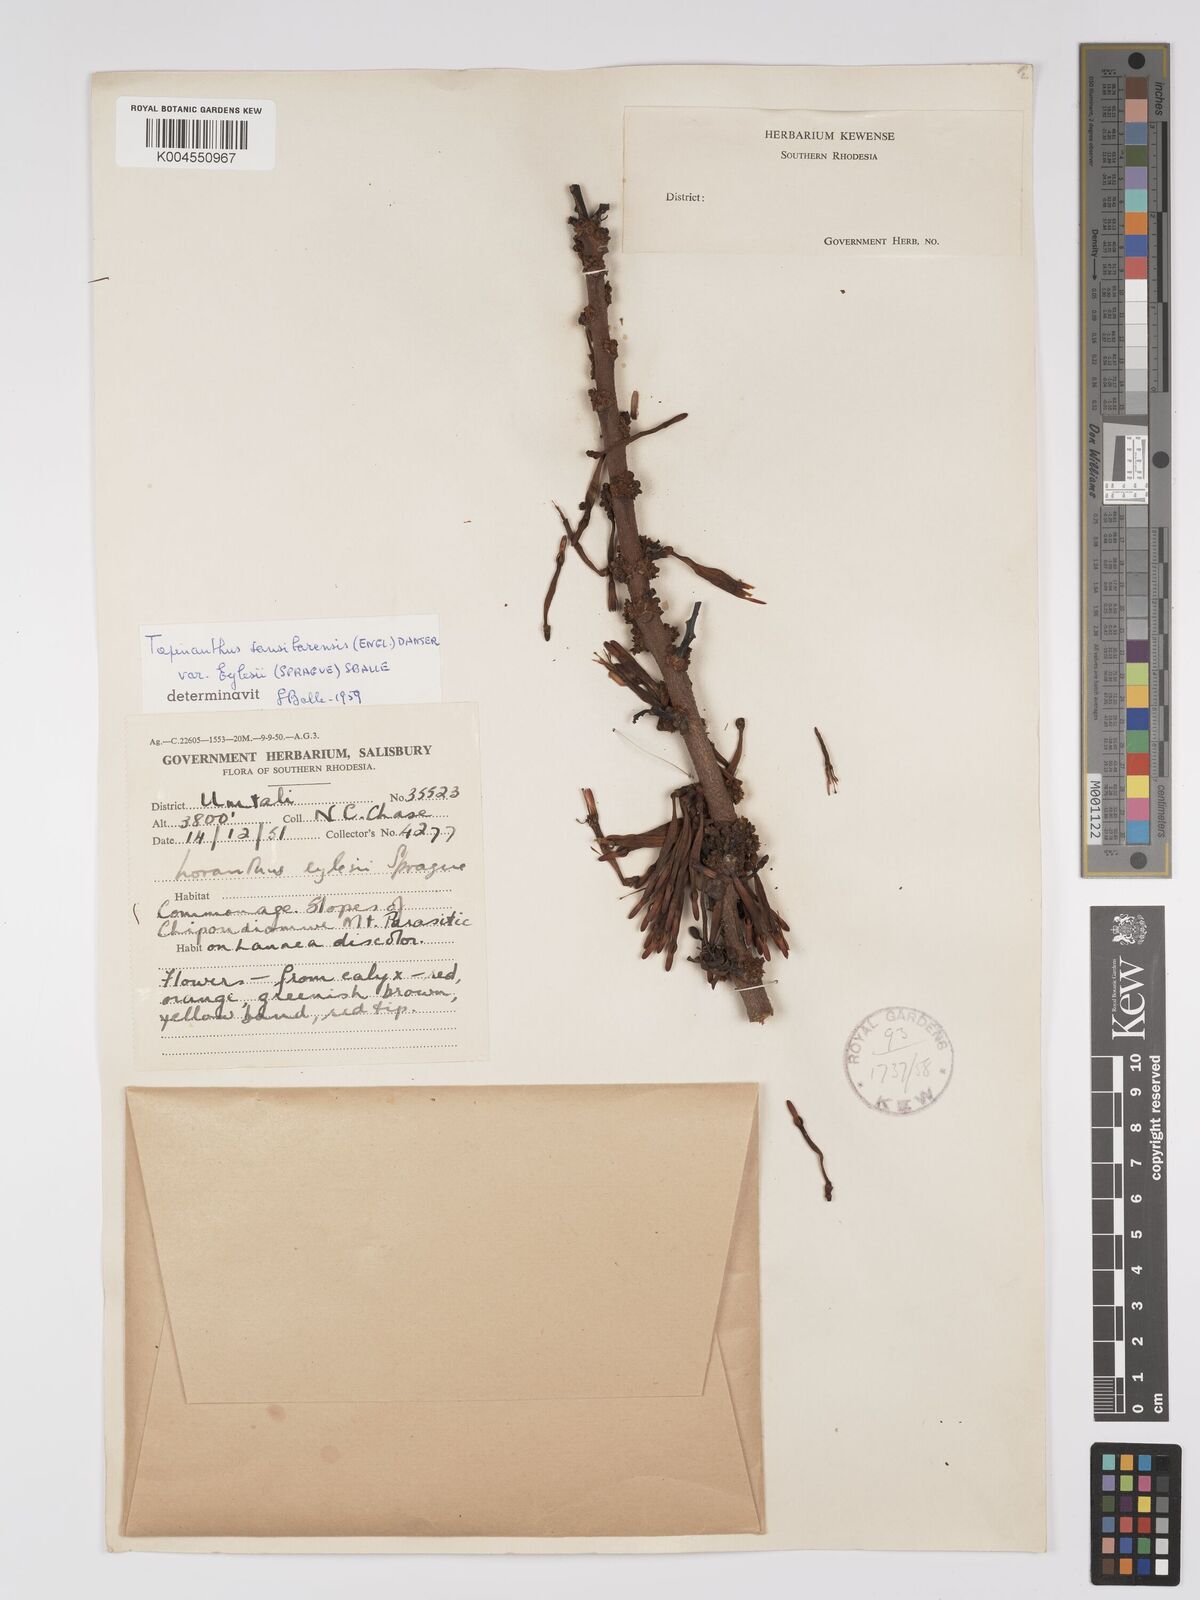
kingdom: Plantae
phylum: Tracheophyta
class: Magnoliopsida
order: Santalales
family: Loranthaceae
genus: Agelanthus
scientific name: Agelanthus fuellebornii
